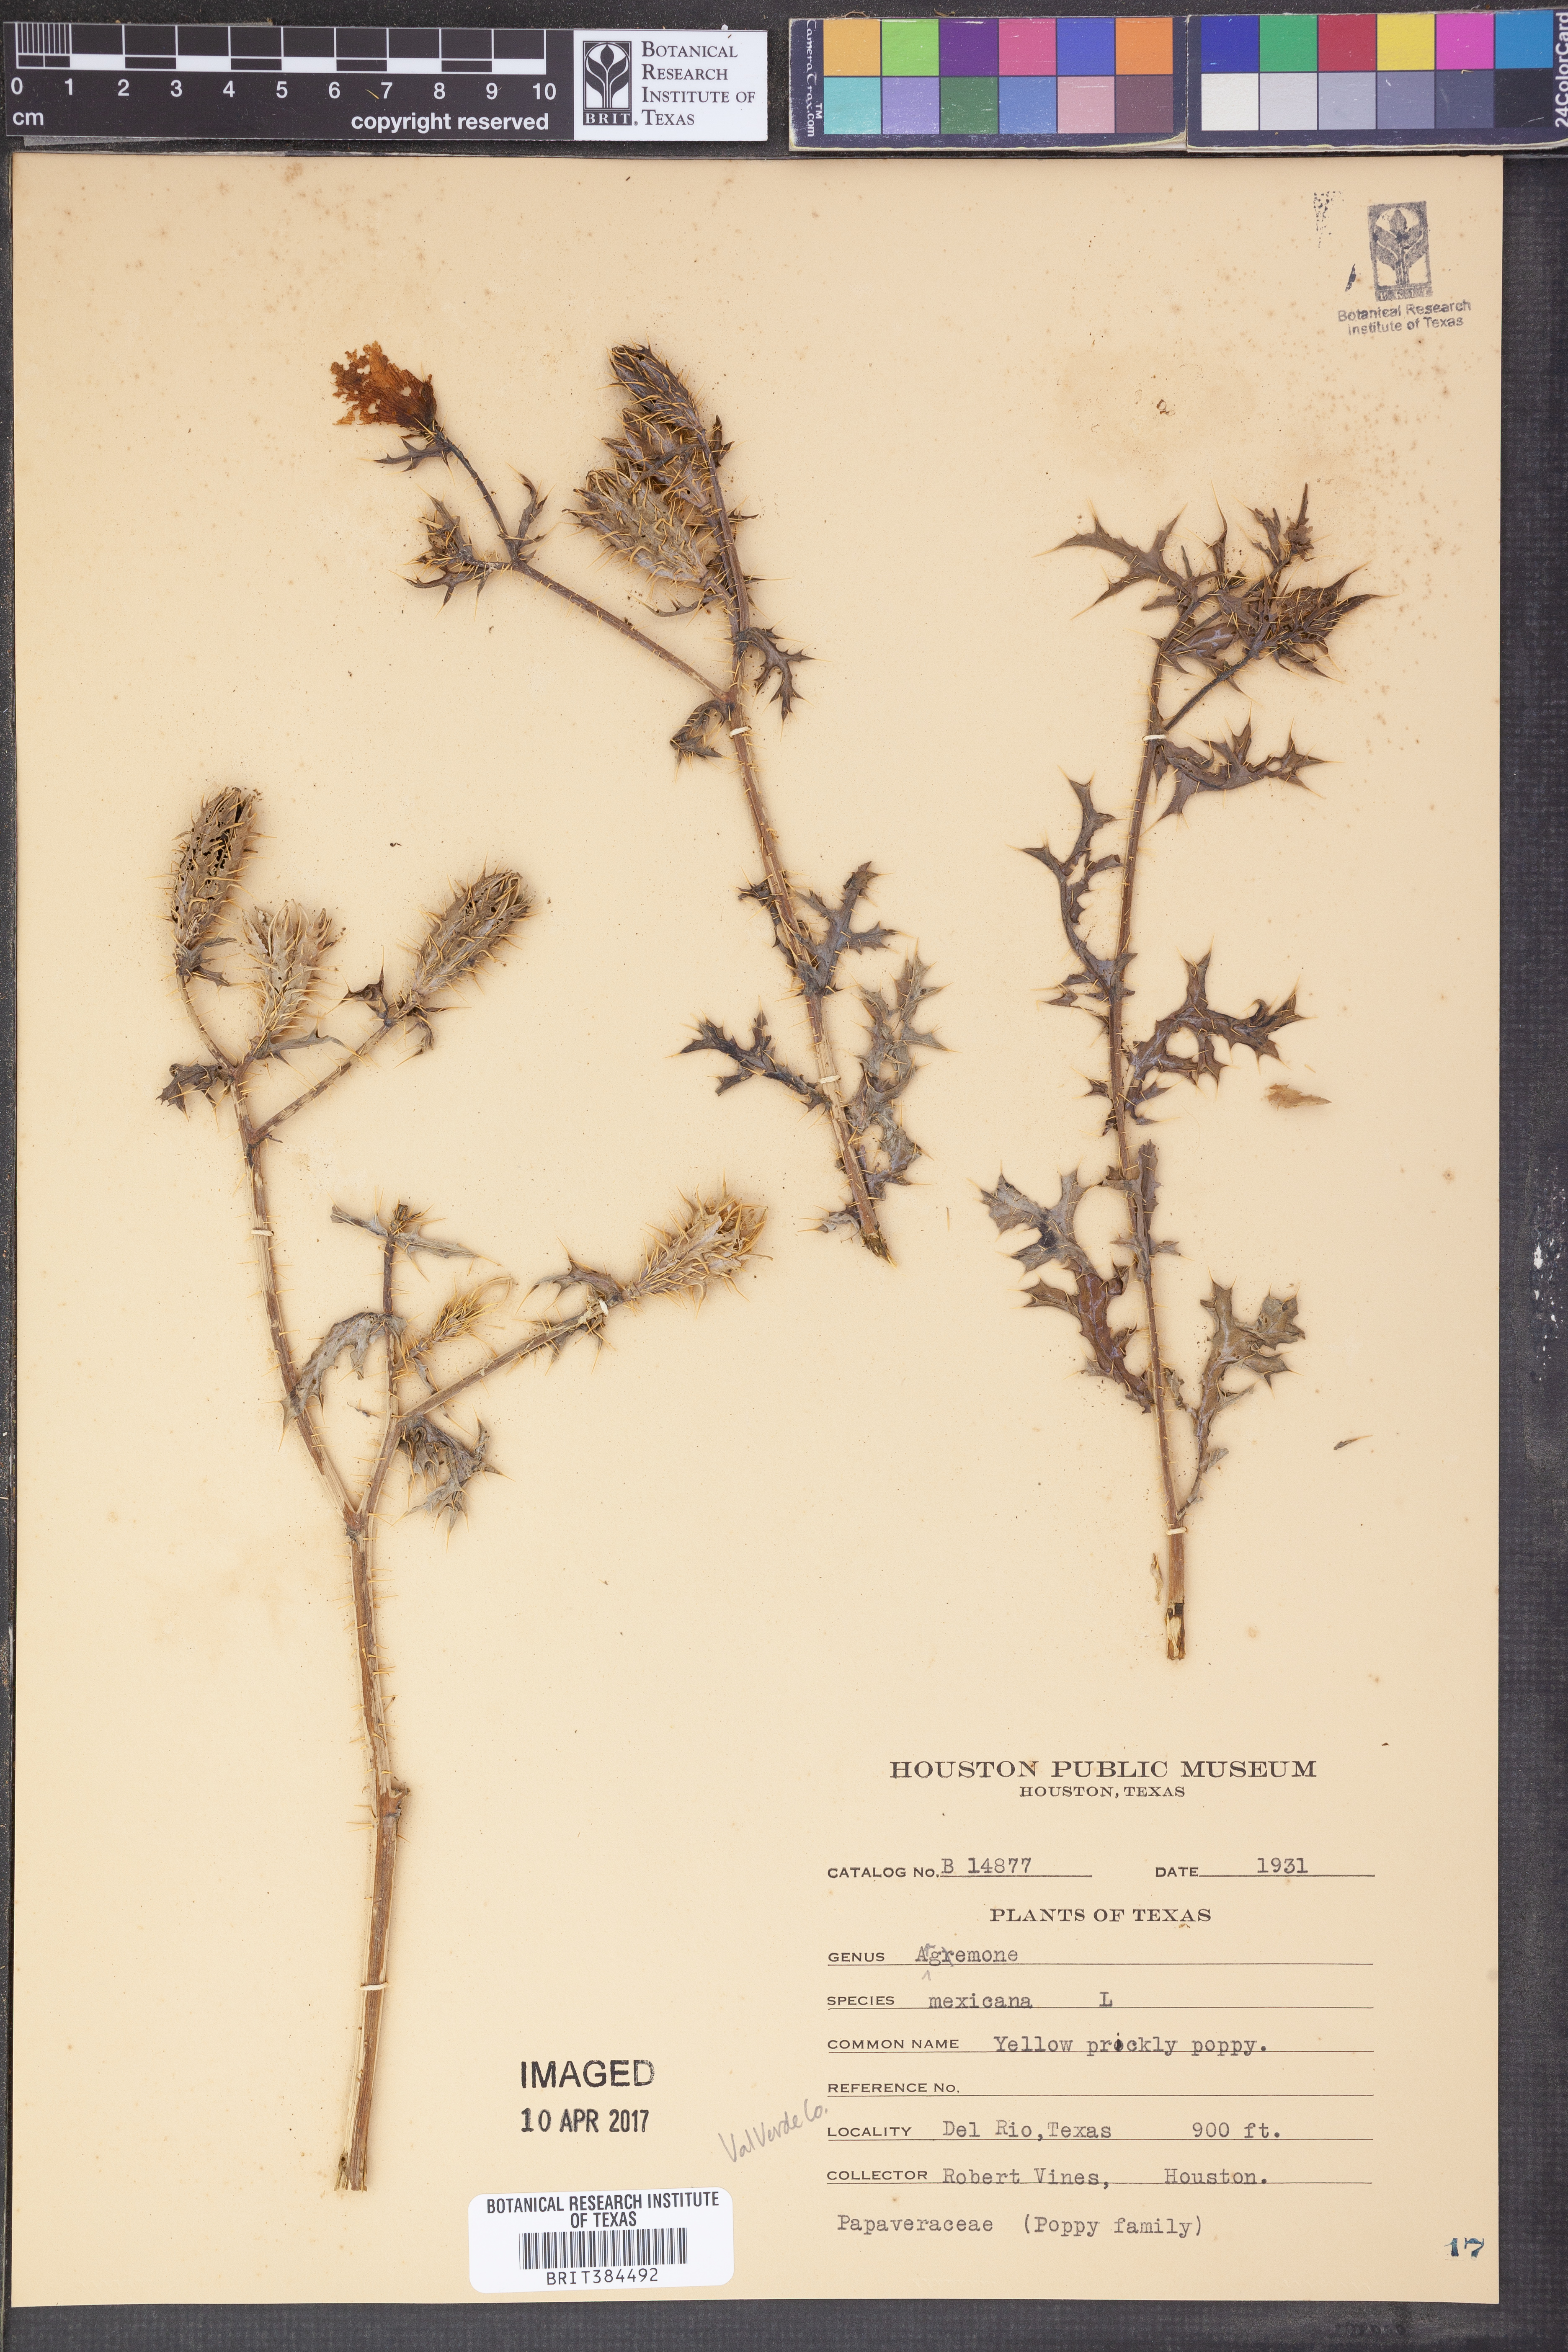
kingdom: Plantae
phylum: Tracheophyta
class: Magnoliopsida
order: Ranunculales
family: Papaveraceae
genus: Argemone
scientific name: Argemone mexicana
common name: Mexican poppy
